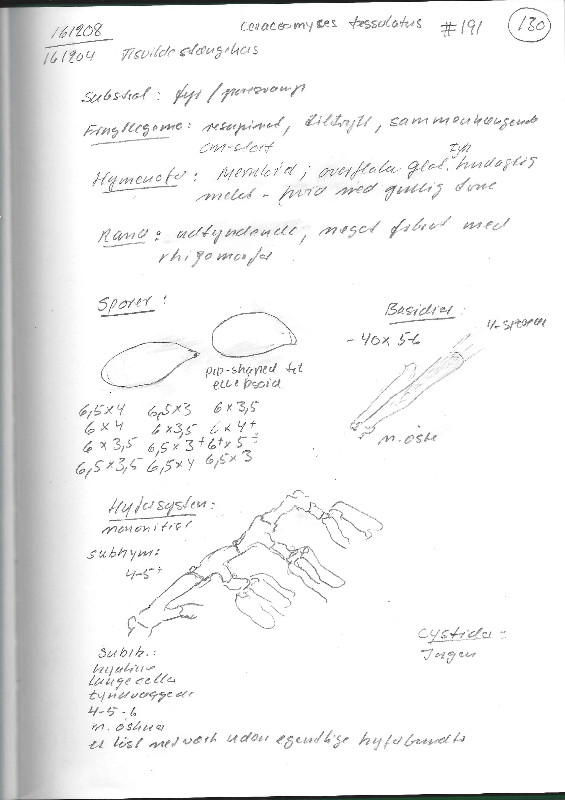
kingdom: Fungi
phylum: Basidiomycota
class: Agaricomycetes
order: Amylocorticiales
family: Amylocorticiaceae
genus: Ceraceomyces
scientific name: Ceraceomyces tessulatus
